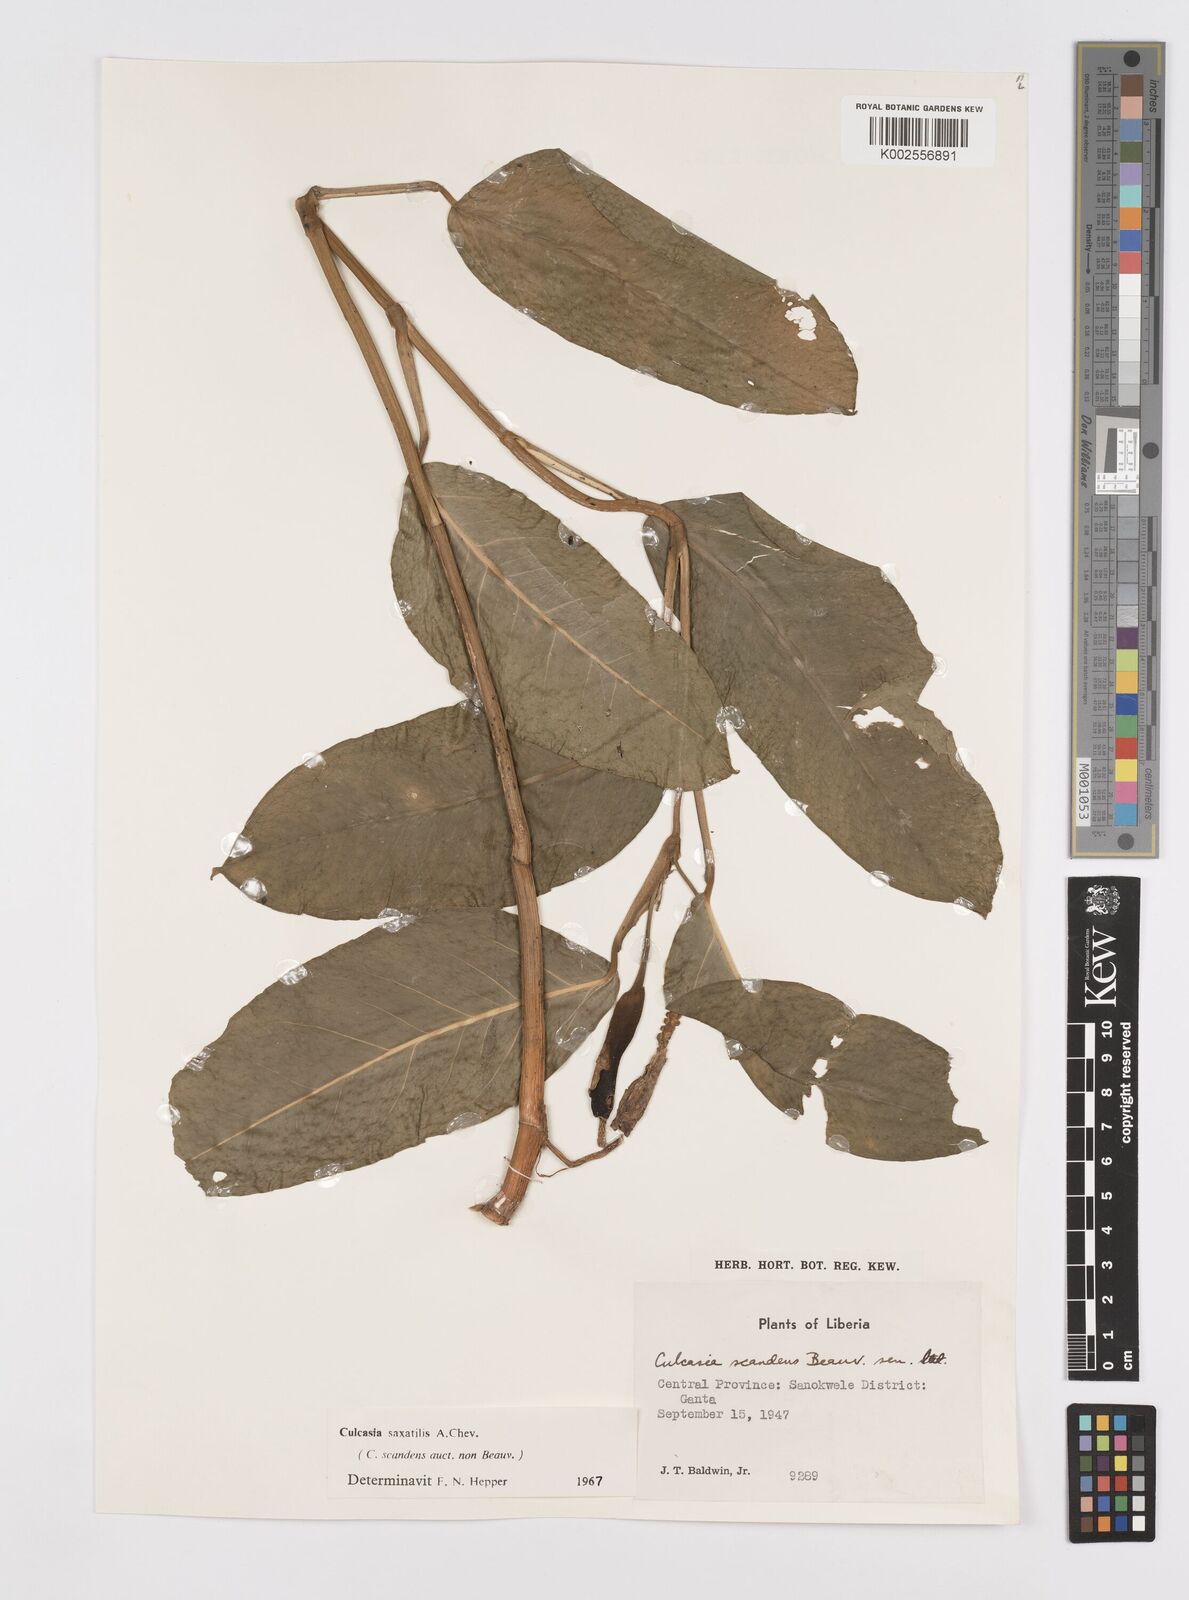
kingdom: Plantae
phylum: Tracheophyta
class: Liliopsida
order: Alismatales
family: Araceae
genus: Culcasia
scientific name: Culcasia scandens
